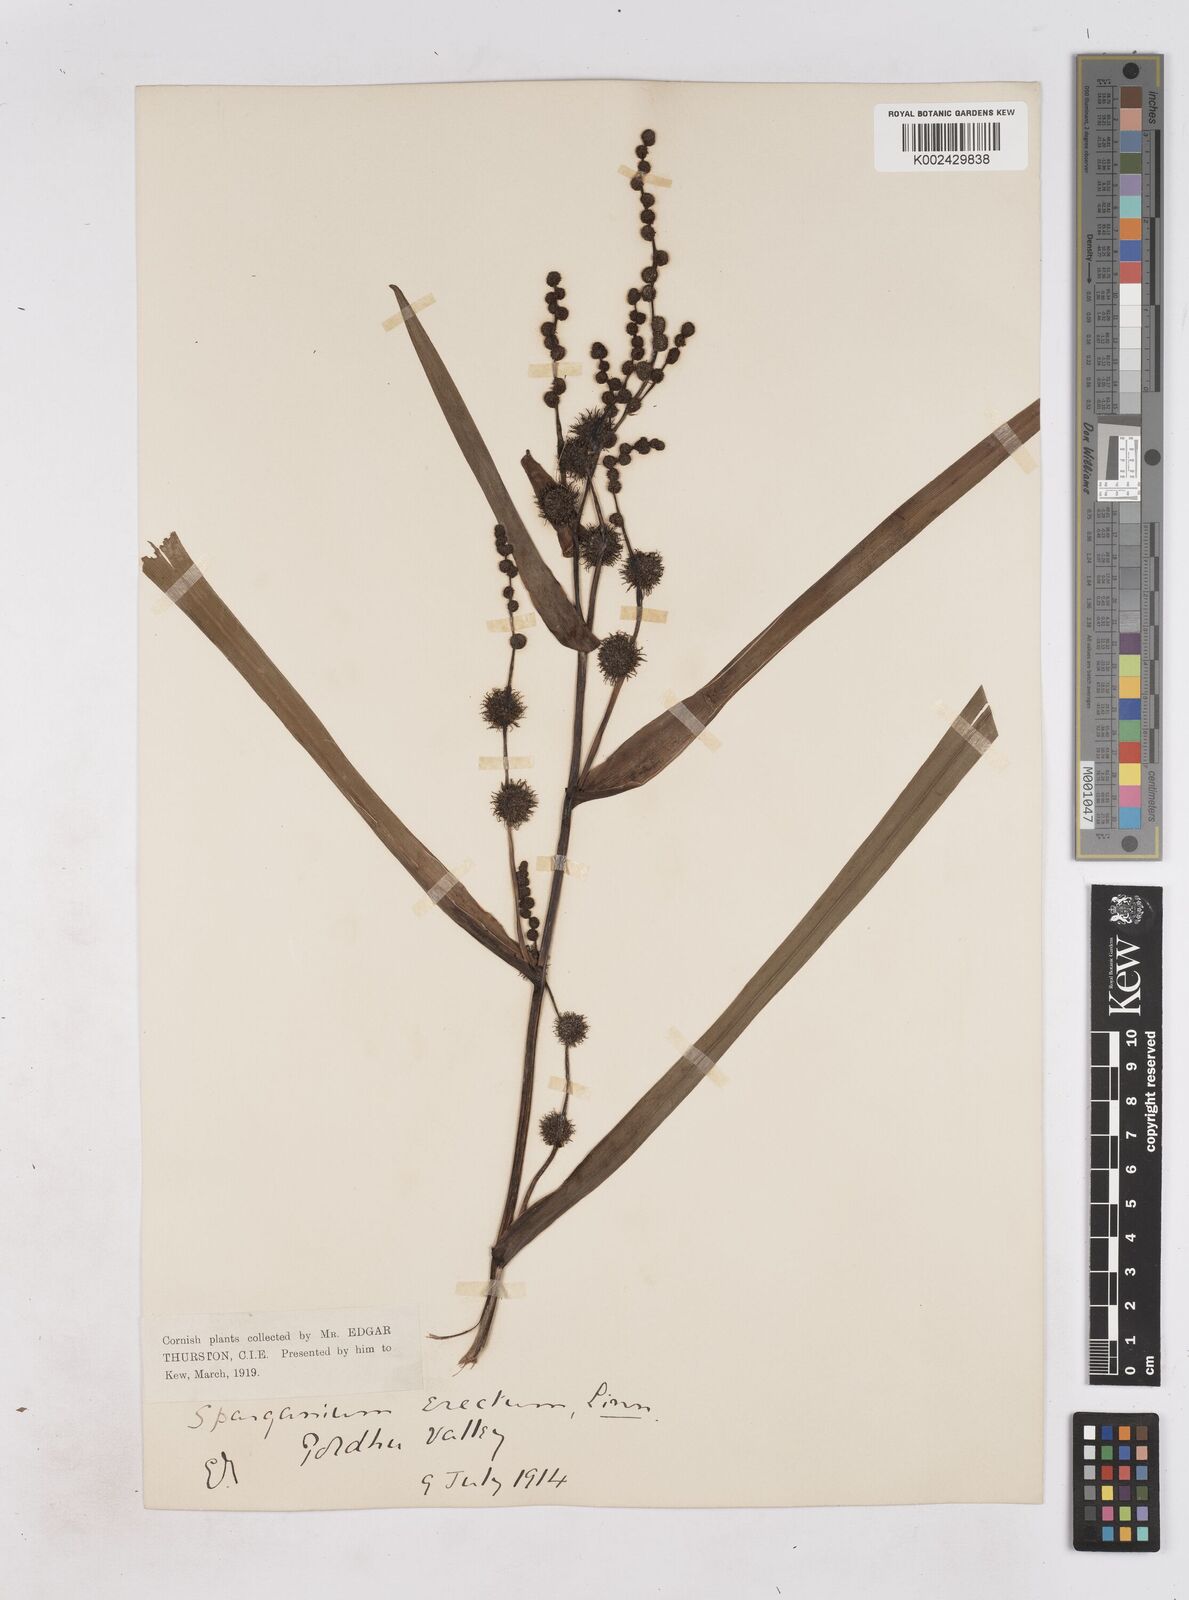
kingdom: Plantae
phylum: Tracheophyta
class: Liliopsida
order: Poales
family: Typhaceae
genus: Sparganium
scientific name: Sparganium erectum
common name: Branched bur-reed
